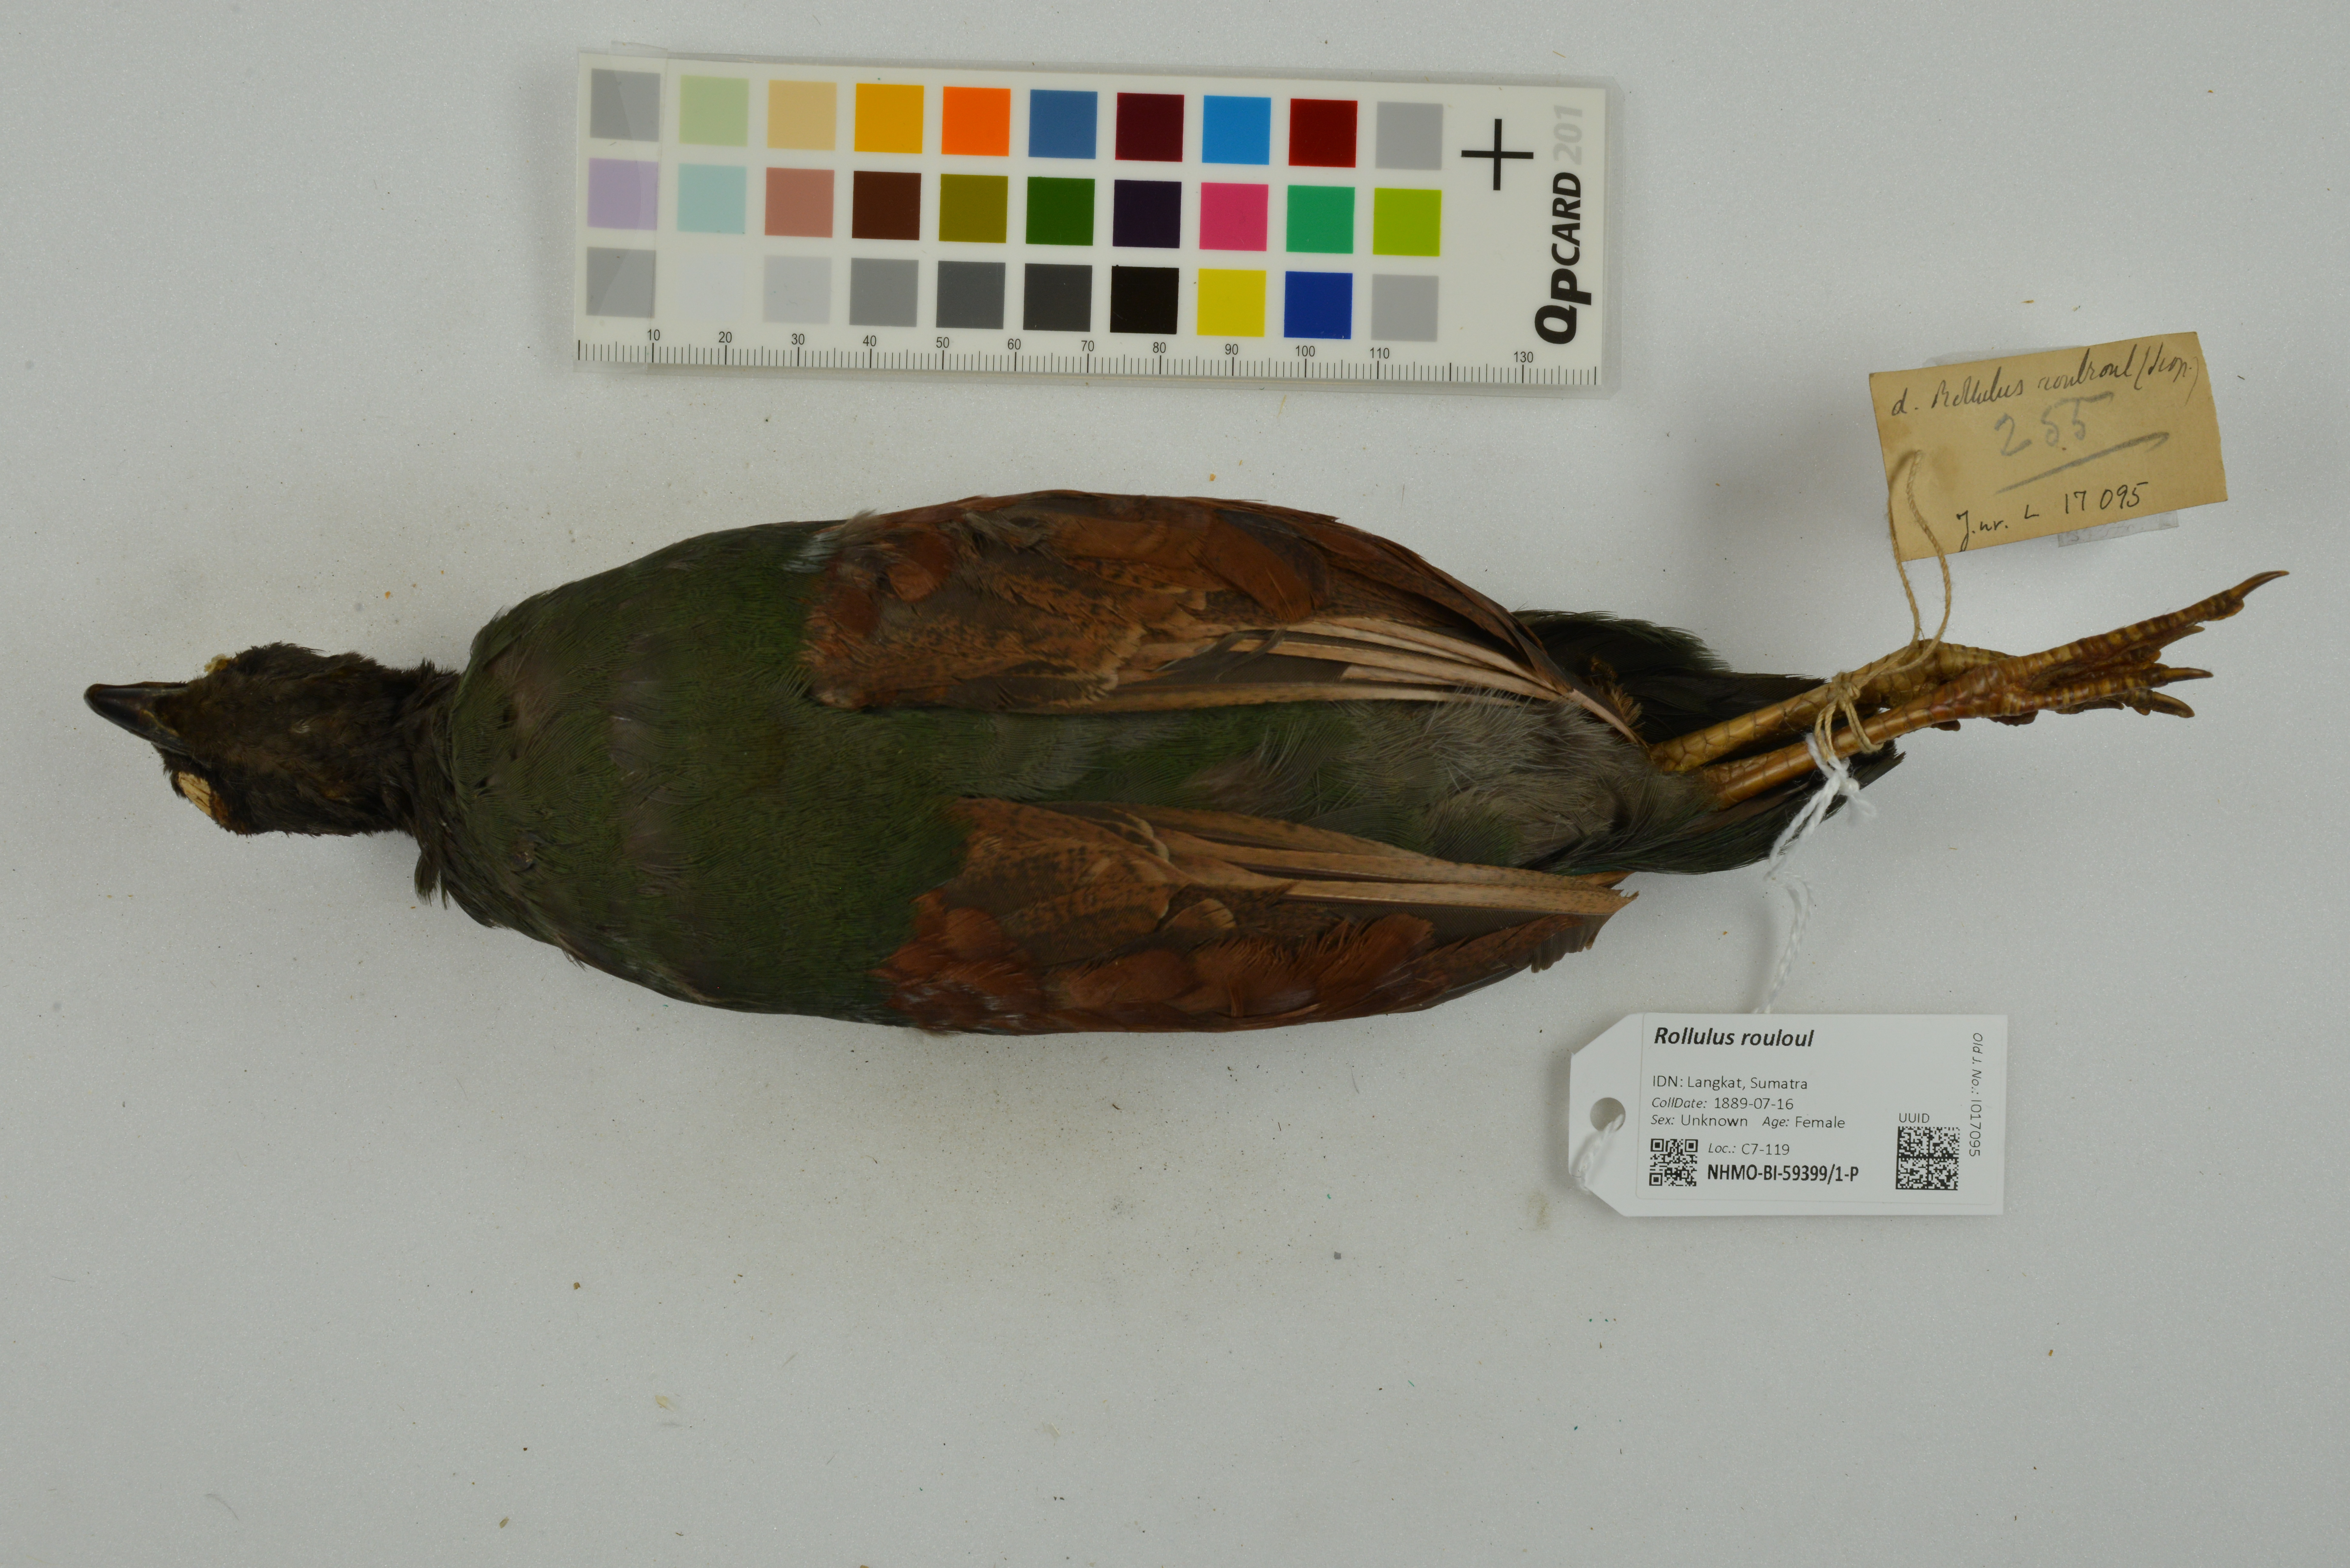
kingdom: Animalia
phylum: Chordata
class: Aves
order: Galliformes
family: Phasianidae
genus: Rollulus
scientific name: Rollulus rouloul
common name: Crested partridge
